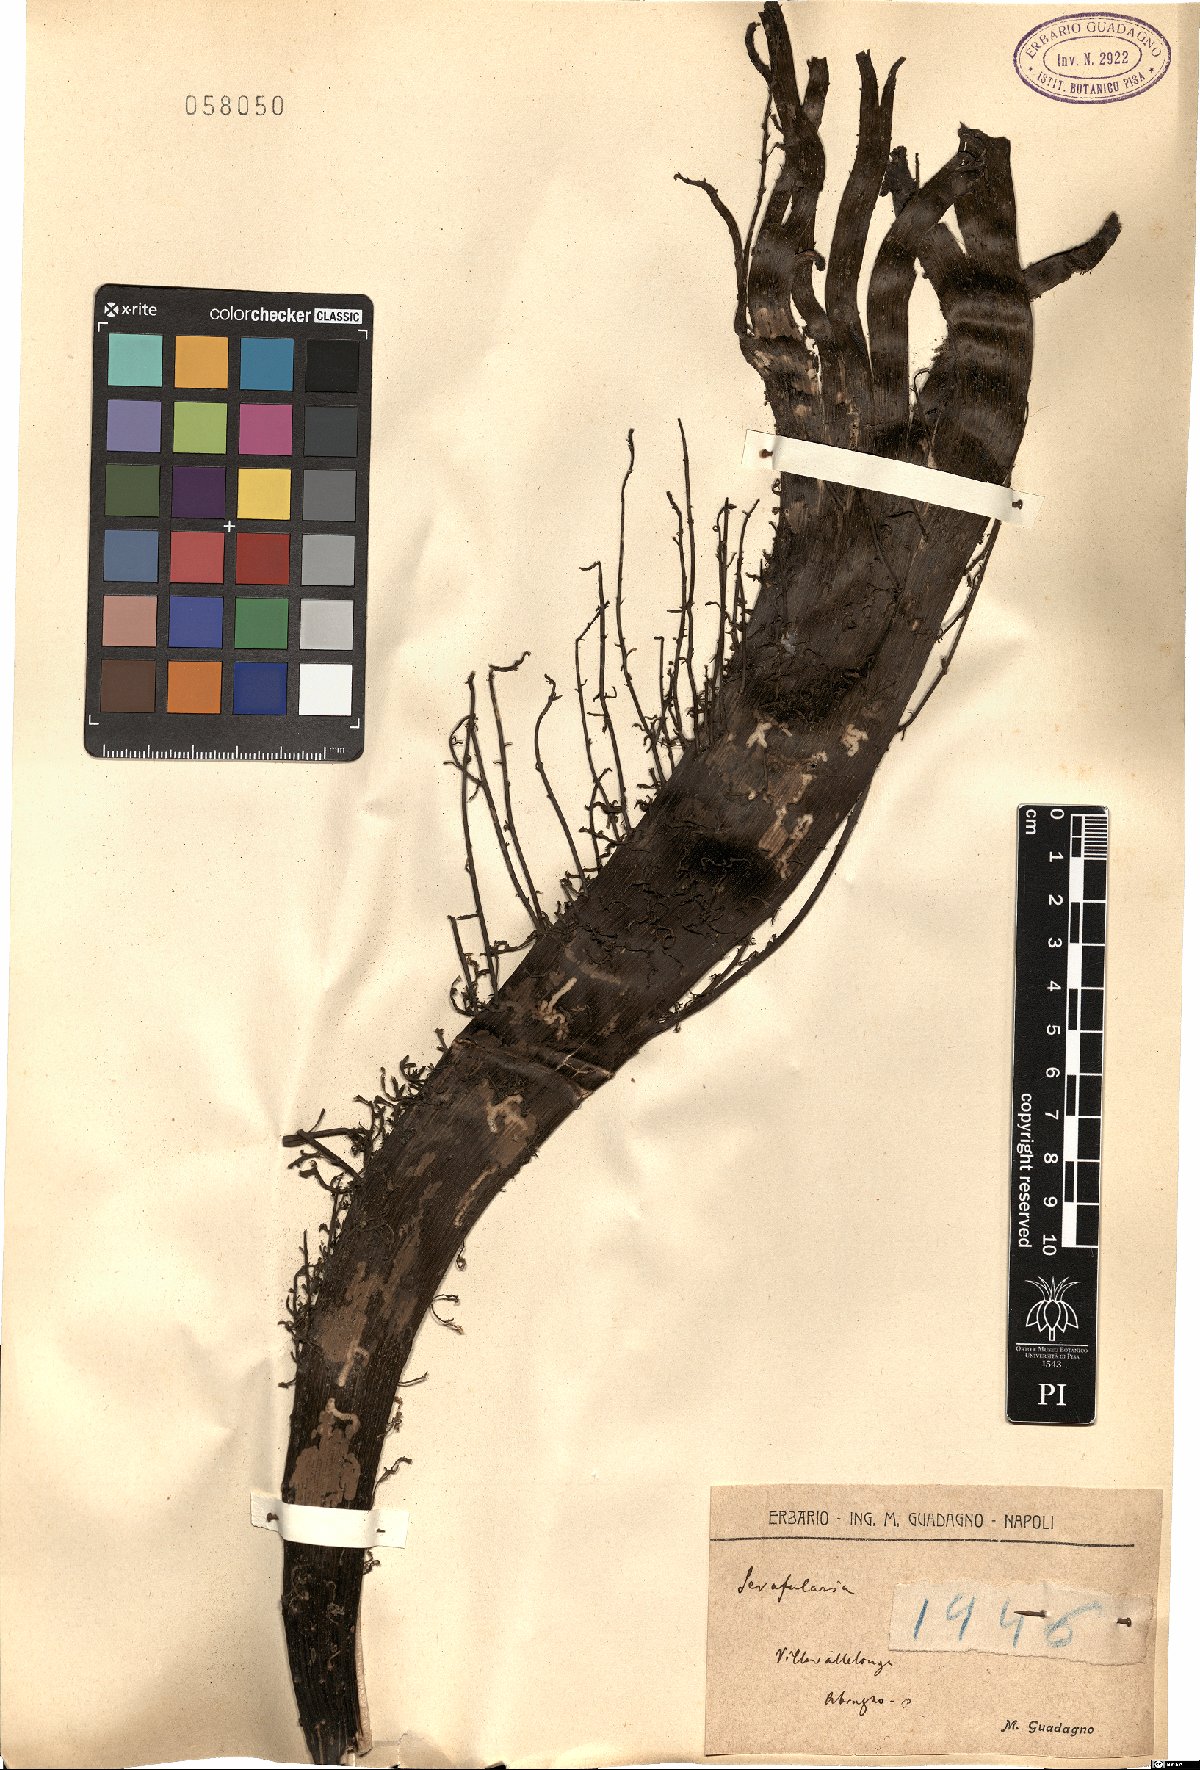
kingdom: Plantae
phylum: Tracheophyta
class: Magnoliopsida
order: Lamiales
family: Scrophulariaceae
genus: Scrophularia
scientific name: Scrophularia
